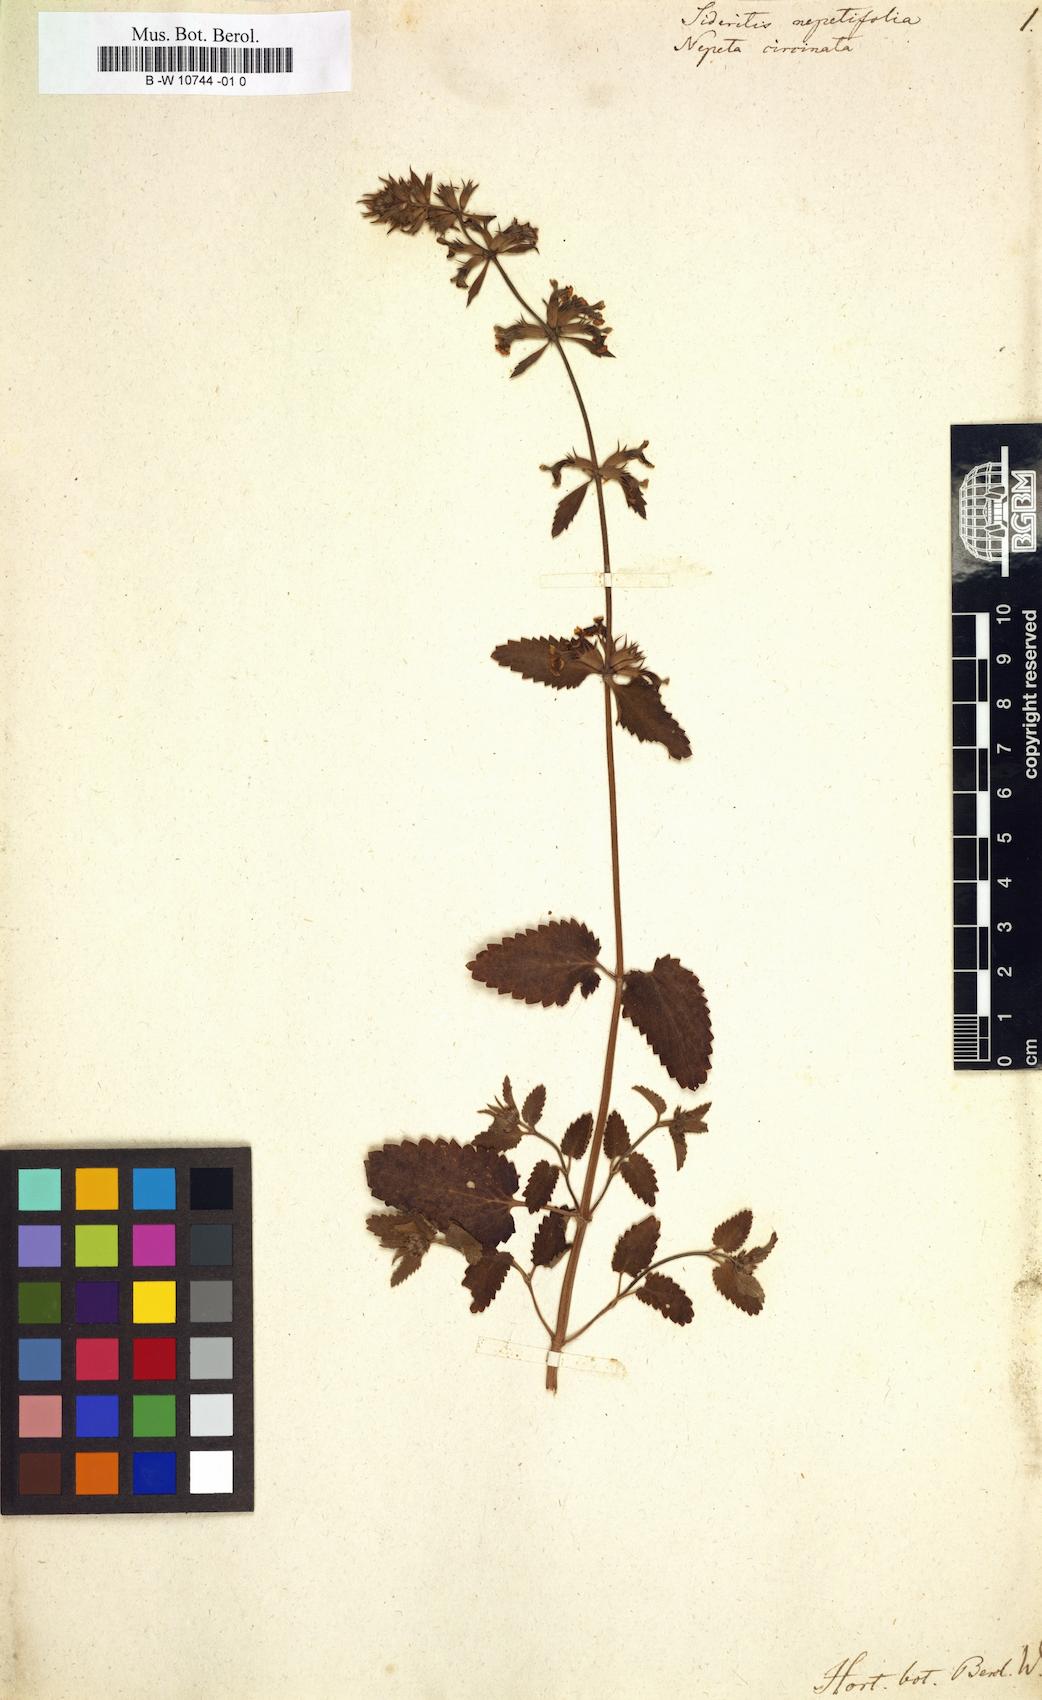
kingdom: Plantae
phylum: Tracheophyta
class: Magnoliopsida
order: Lamiales
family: Lamiaceae
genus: Stachys
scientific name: Stachys nepetifolia
